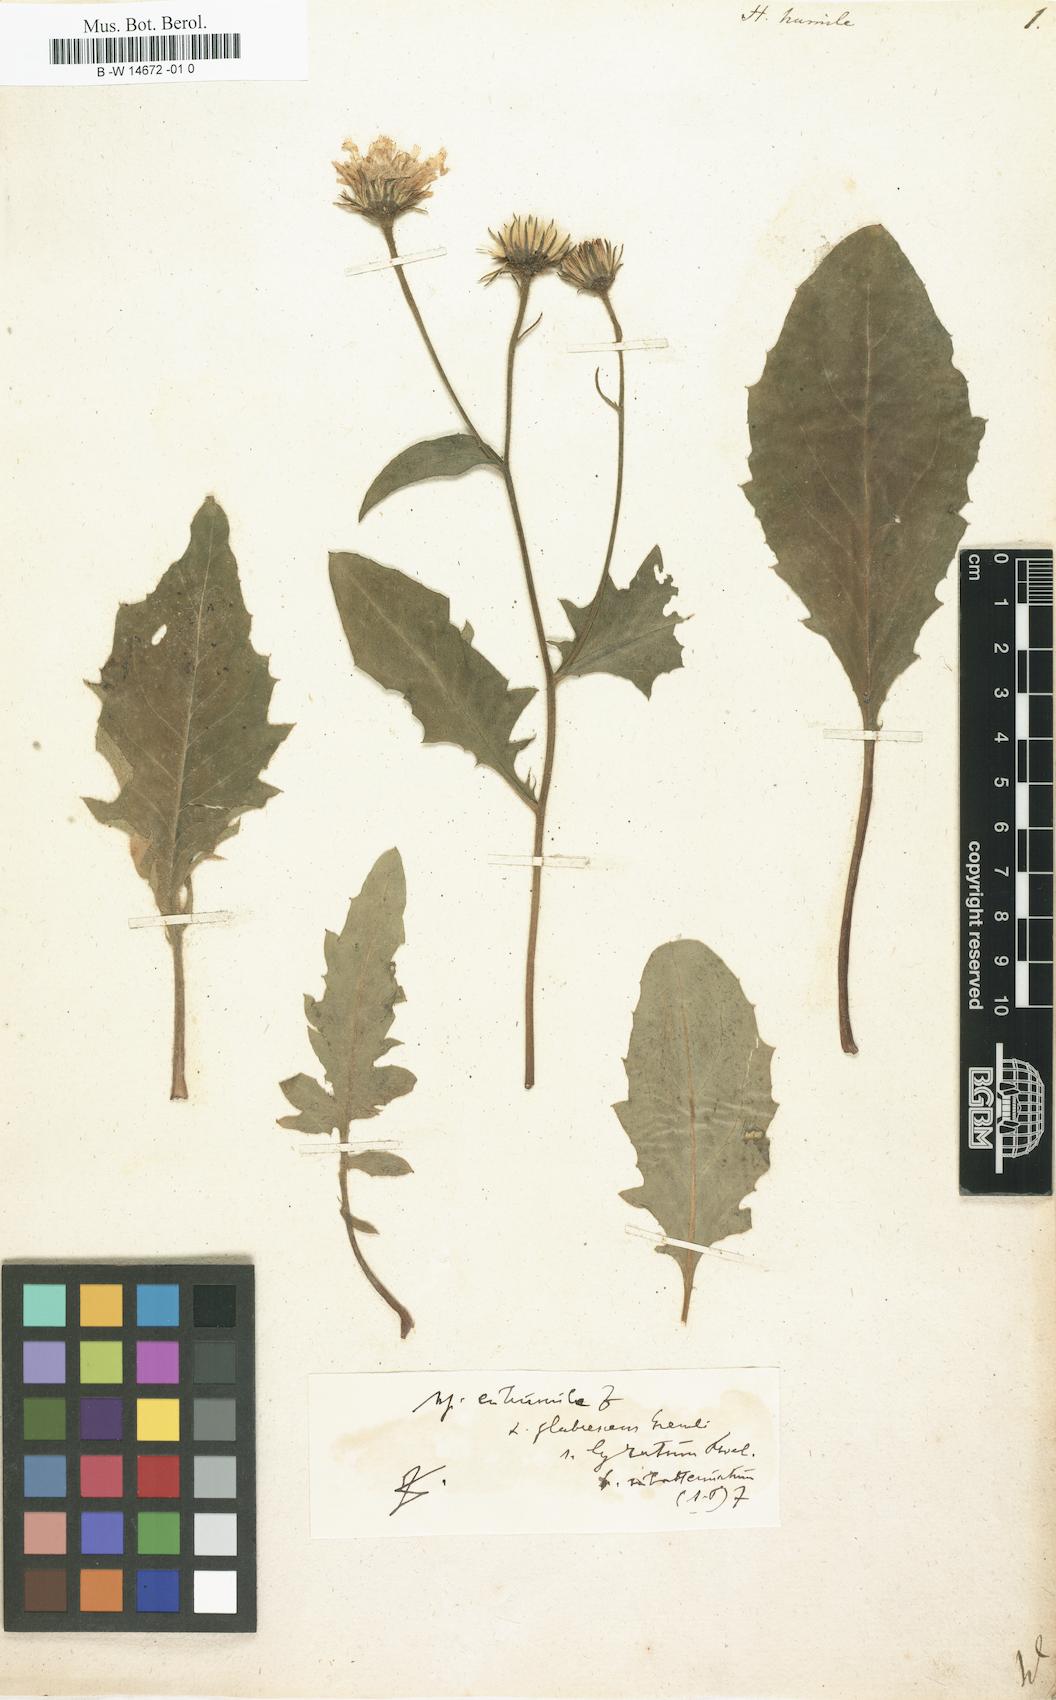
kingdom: Plantae
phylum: Tracheophyta
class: Magnoliopsida
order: Asterales
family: Asteraceae
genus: Hieracium
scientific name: Hieracium humile
